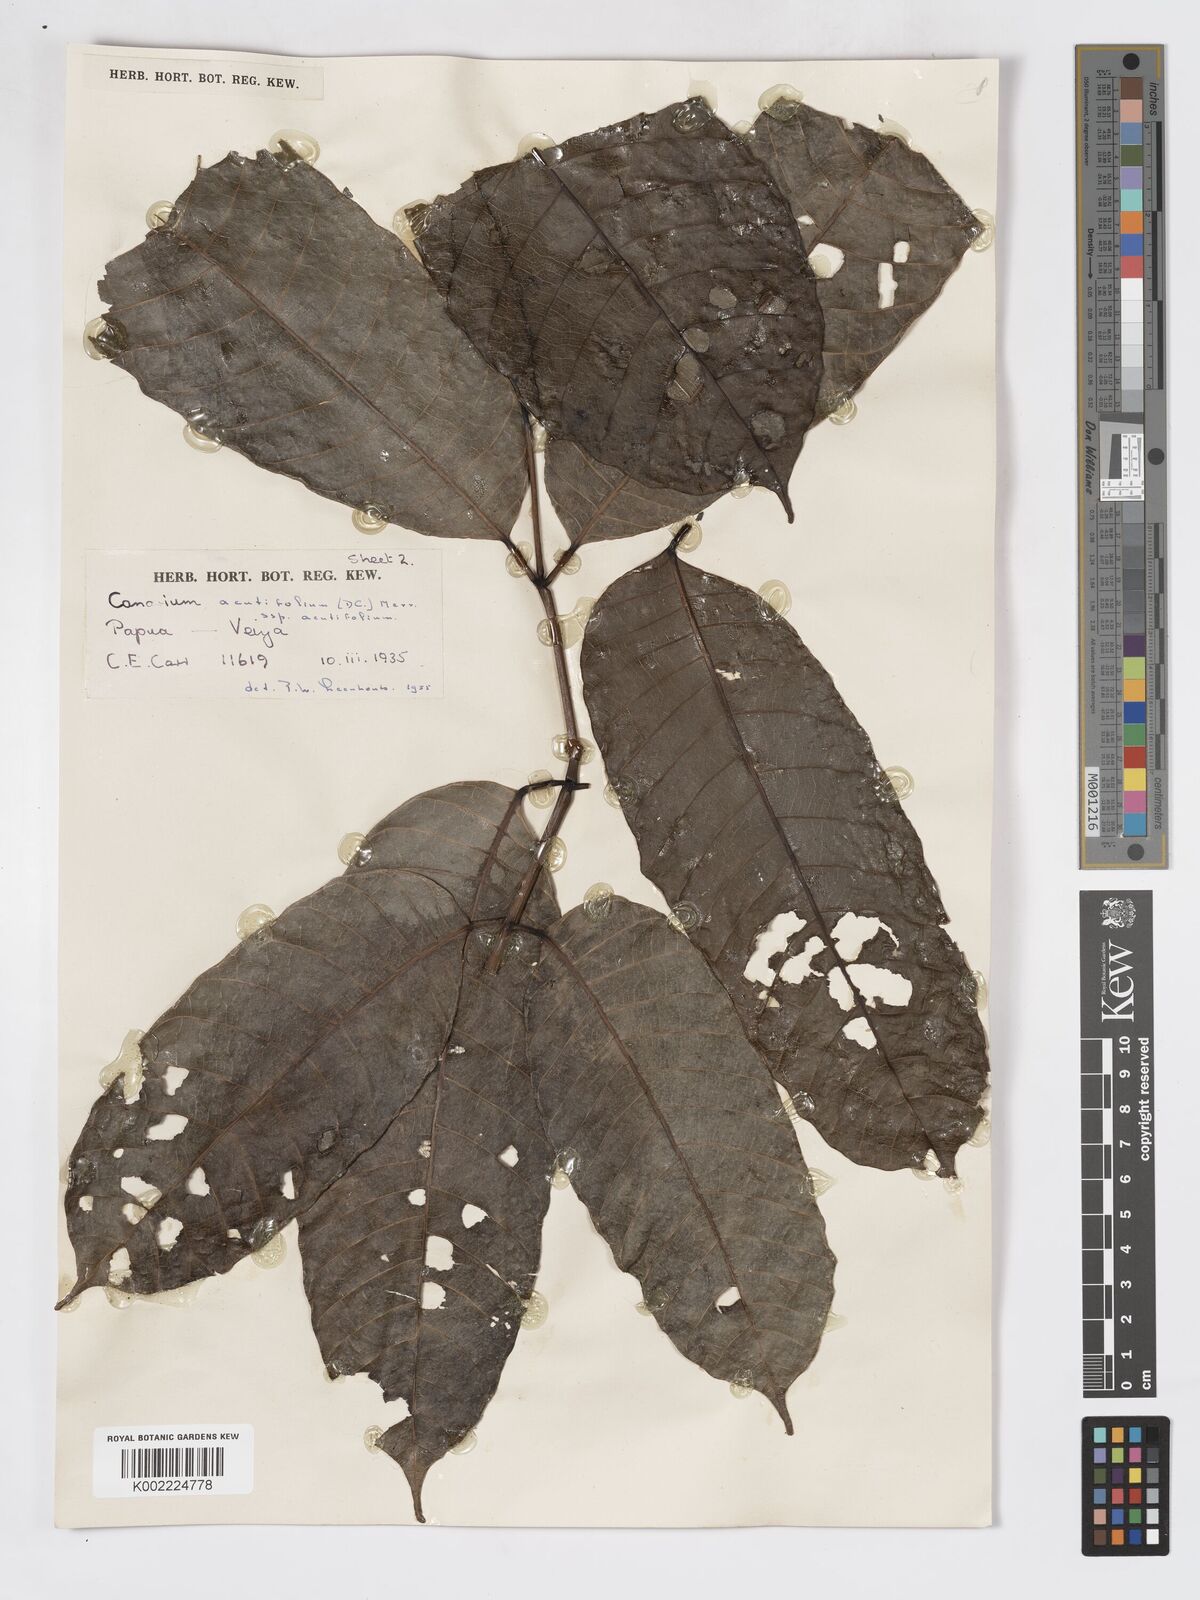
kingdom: Plantae
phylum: Tracheophyta
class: Magnoliopsida
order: Sapindales
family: Burseraceae
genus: Canarium
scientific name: Canarium acutifolium
